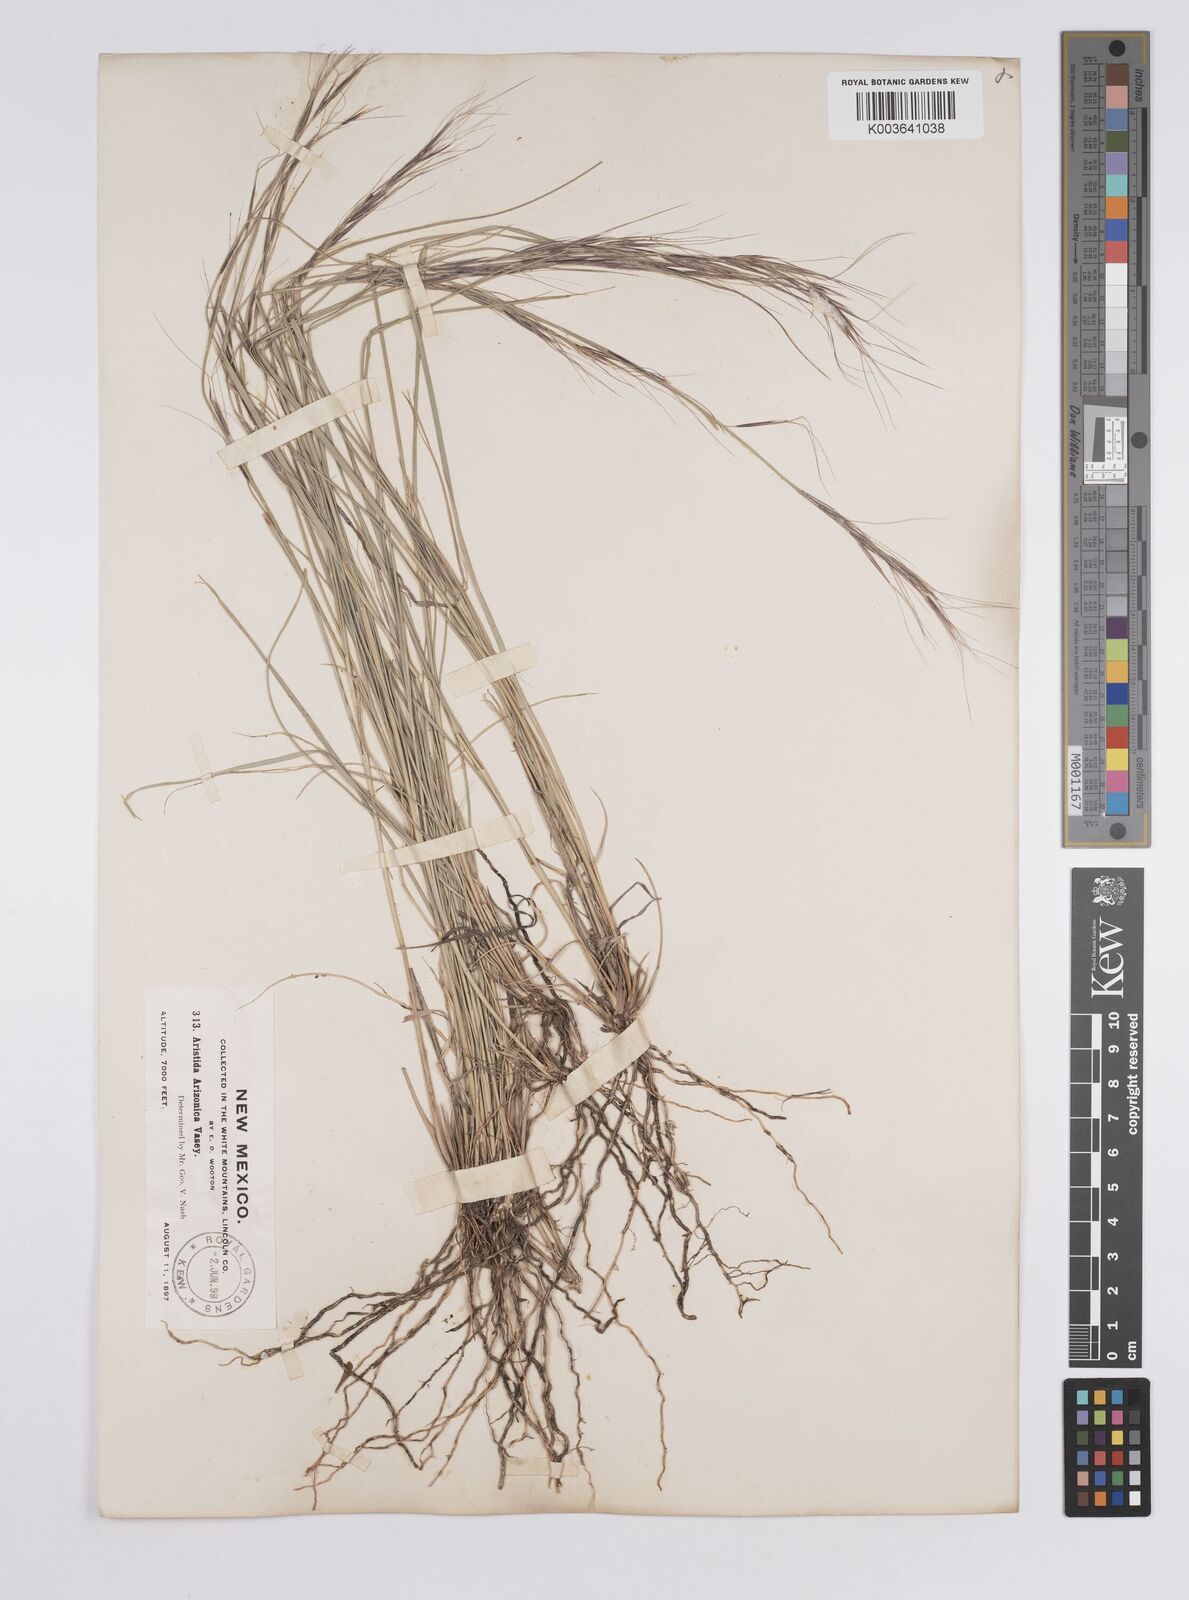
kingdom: Plantae
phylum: Tracheophyta
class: Liliopsida
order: Poales
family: Poaceae
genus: Aristida
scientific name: Aristida arizonica
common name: Arizona threeawn
